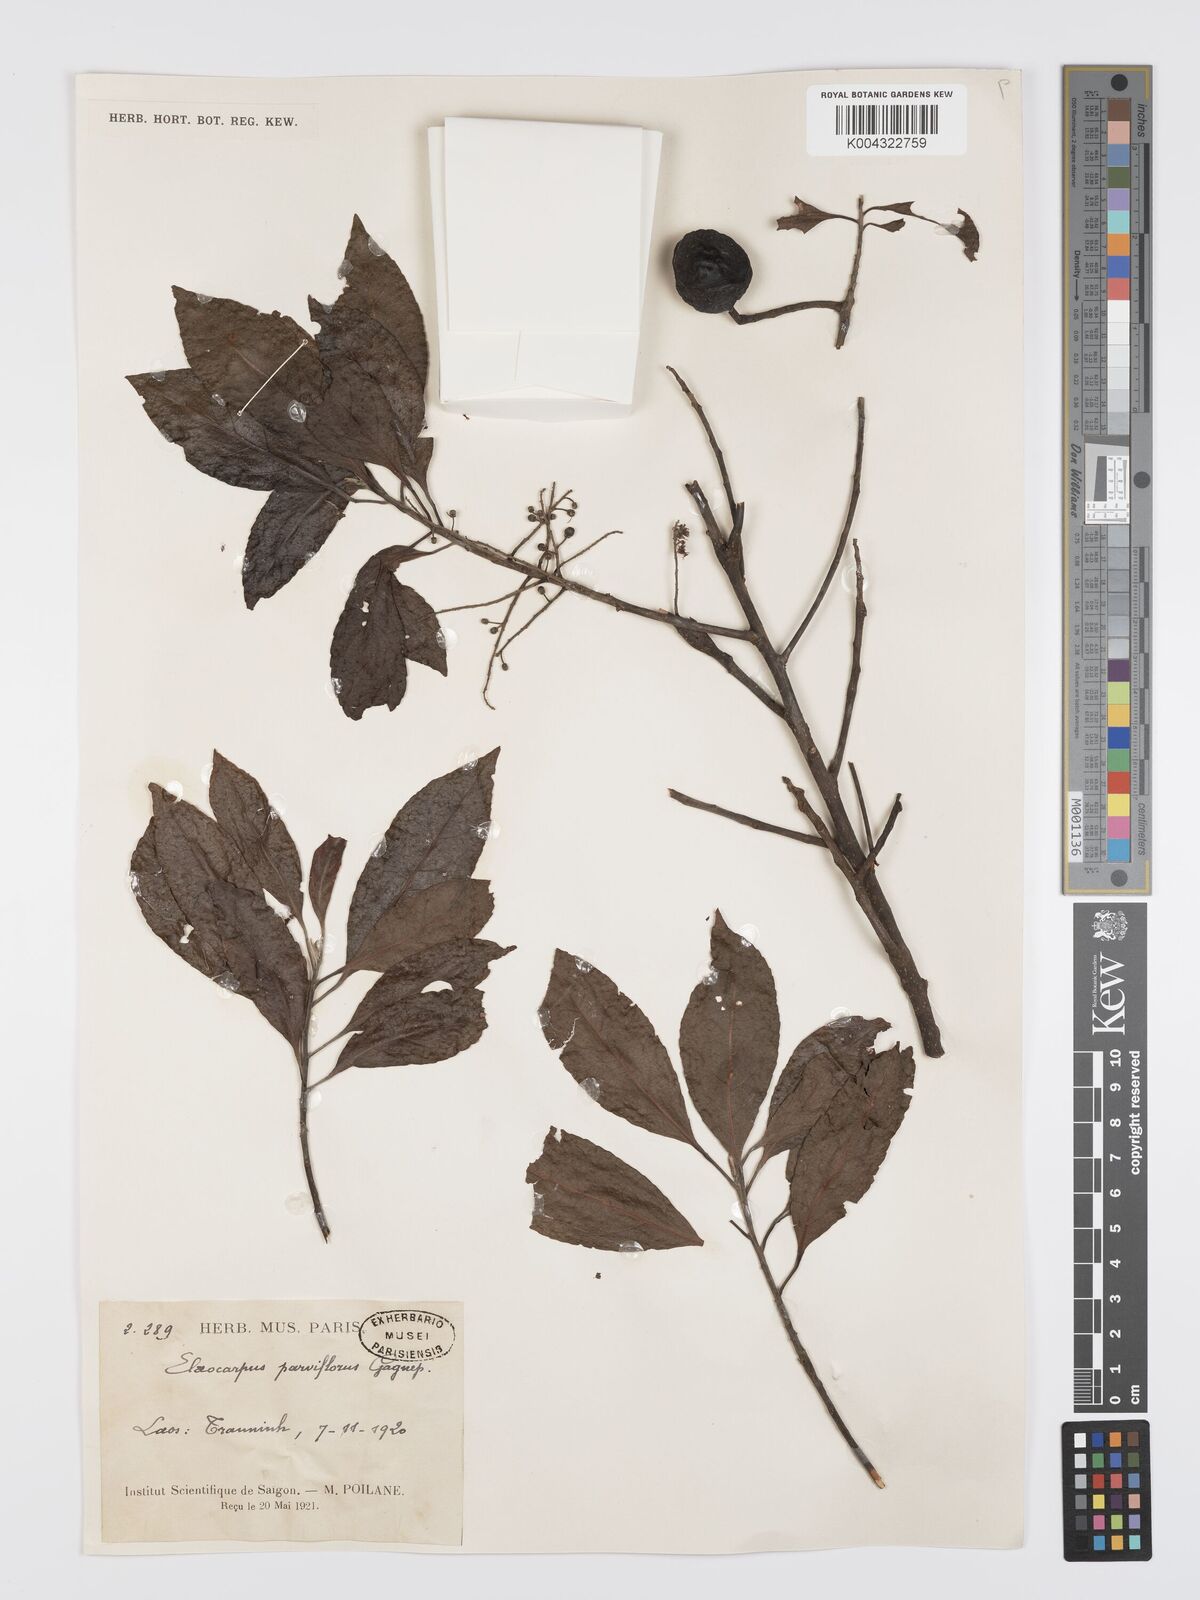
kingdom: Plantae
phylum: Tracheophyta
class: Magnoliopsida
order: Oxalidales
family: Elaeocarpaceae
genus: Elaeocarpus
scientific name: Elaeocarpus
